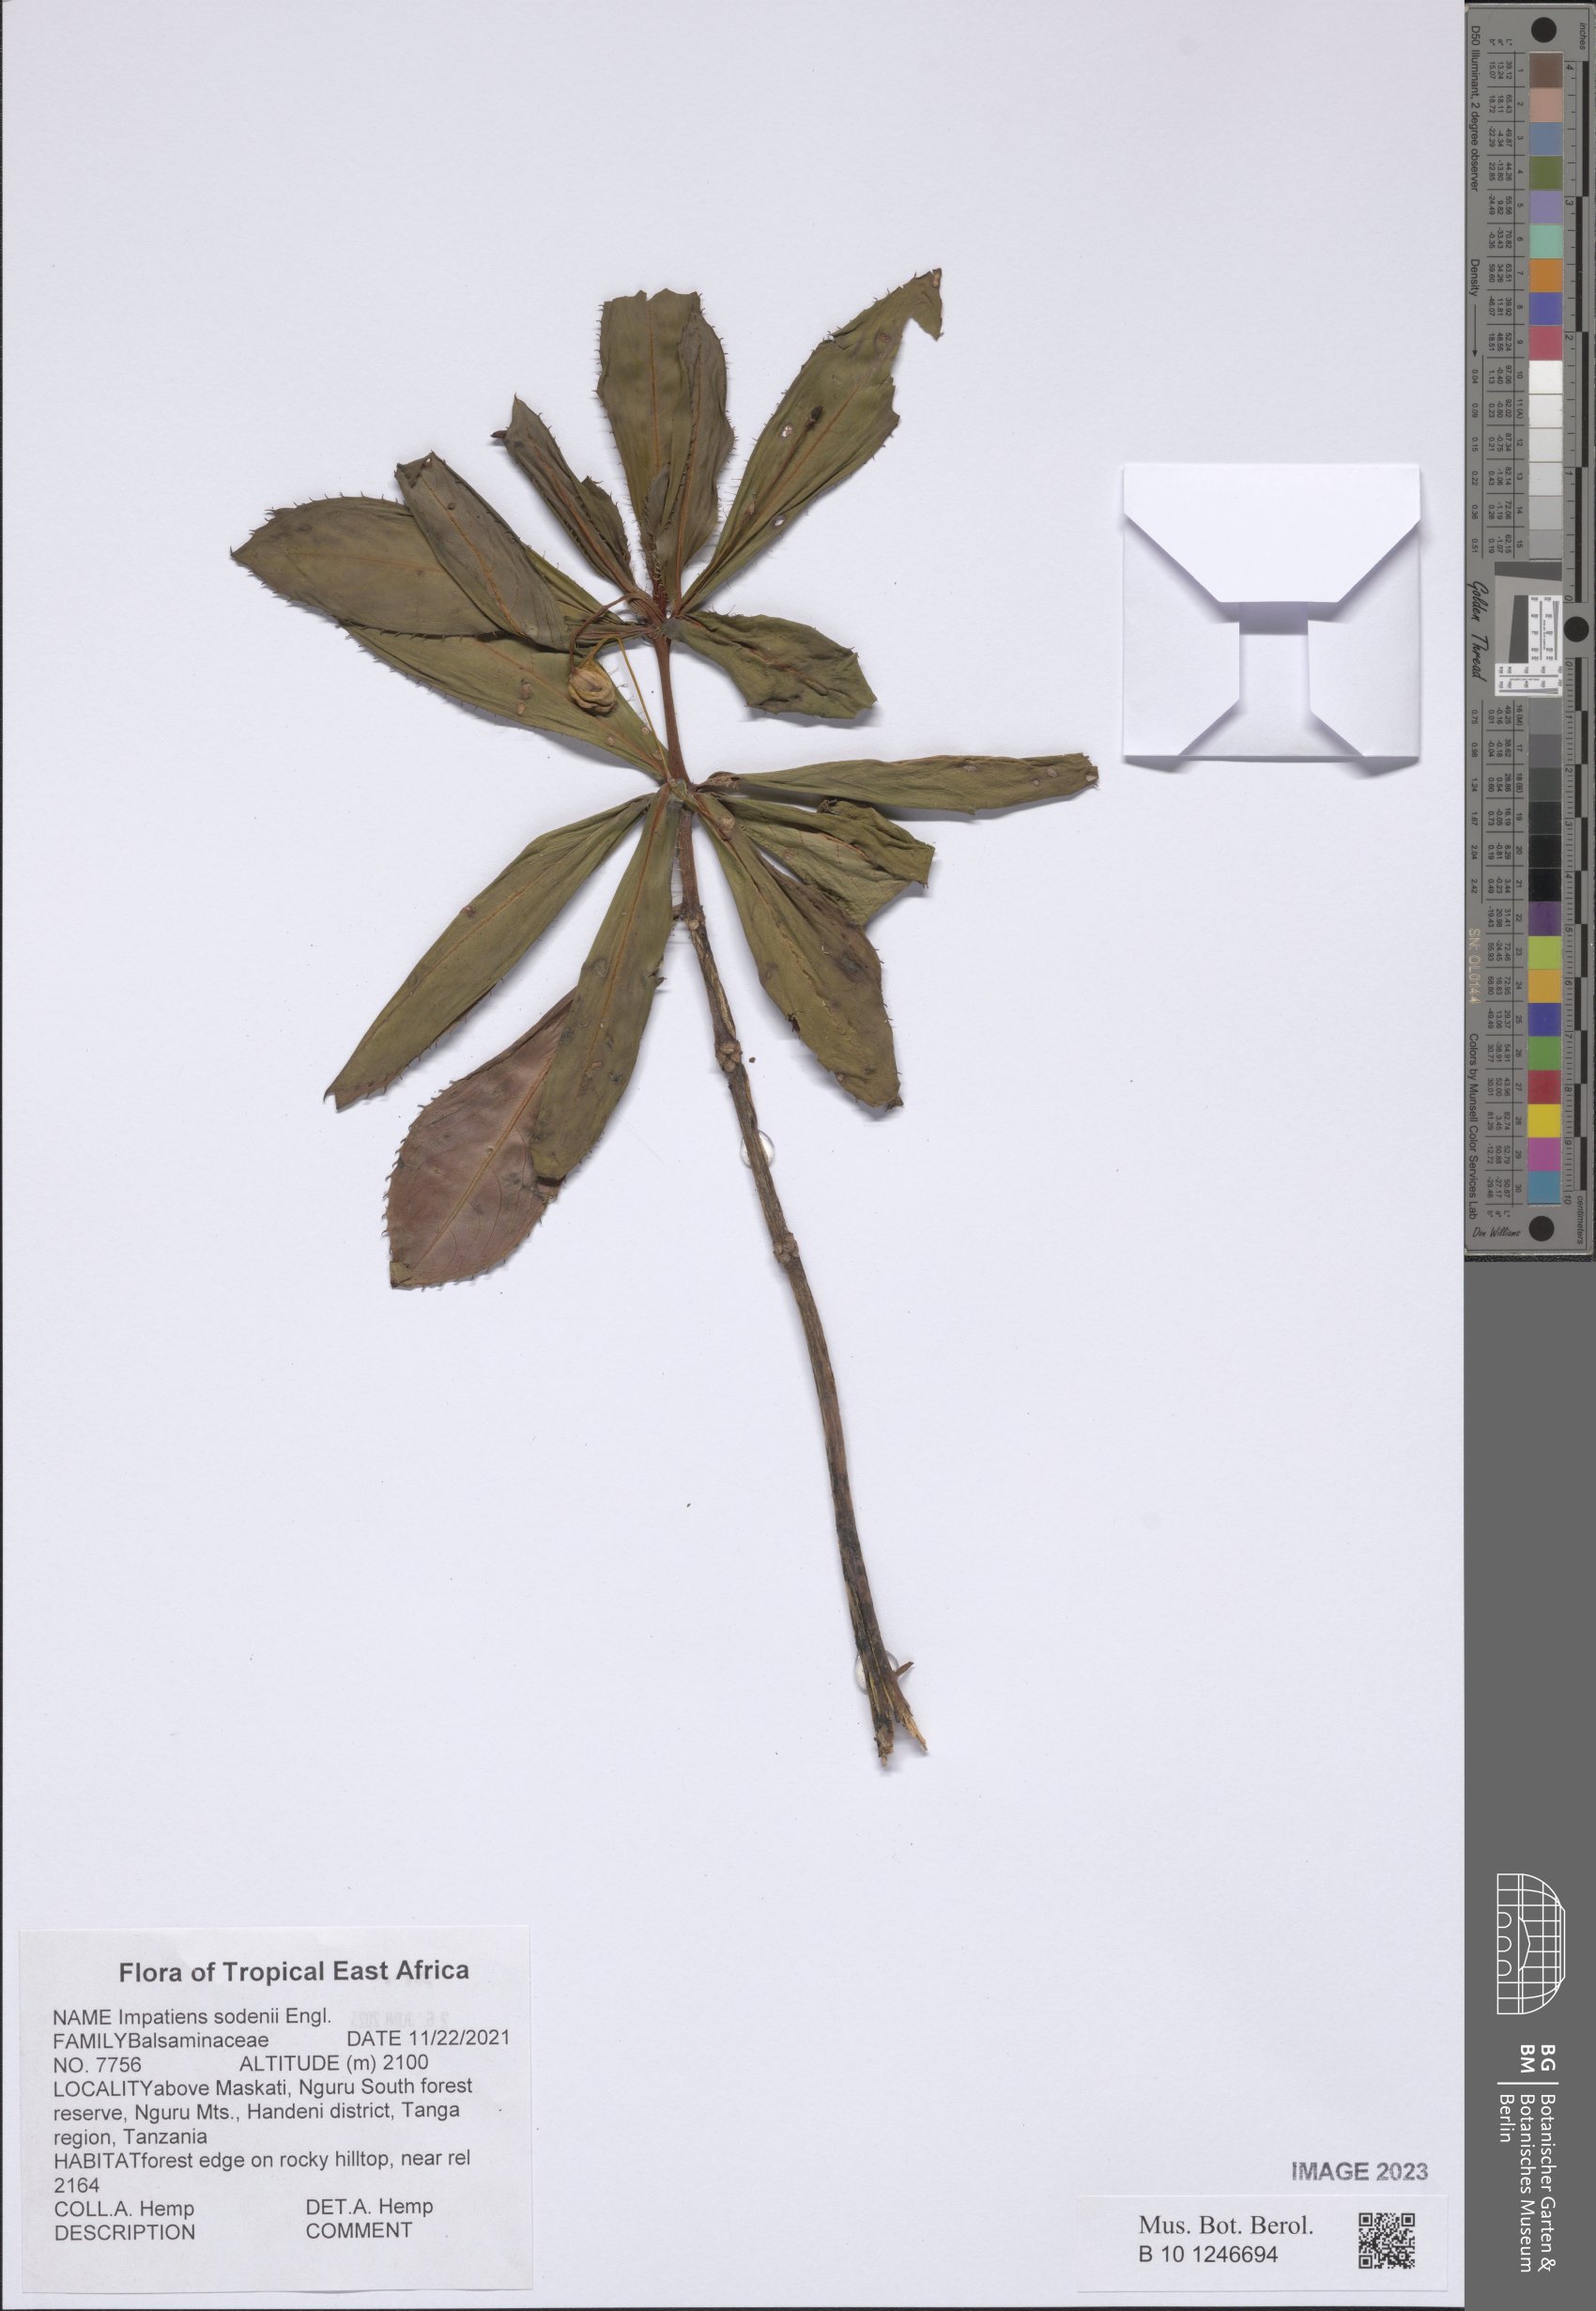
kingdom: Plantae
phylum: Tracheophyta
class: Magnoliopsida
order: Ericales
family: Balsaminaceae
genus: Impatiens
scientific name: Impatiens sodenii
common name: Oliver's touch-me-not
